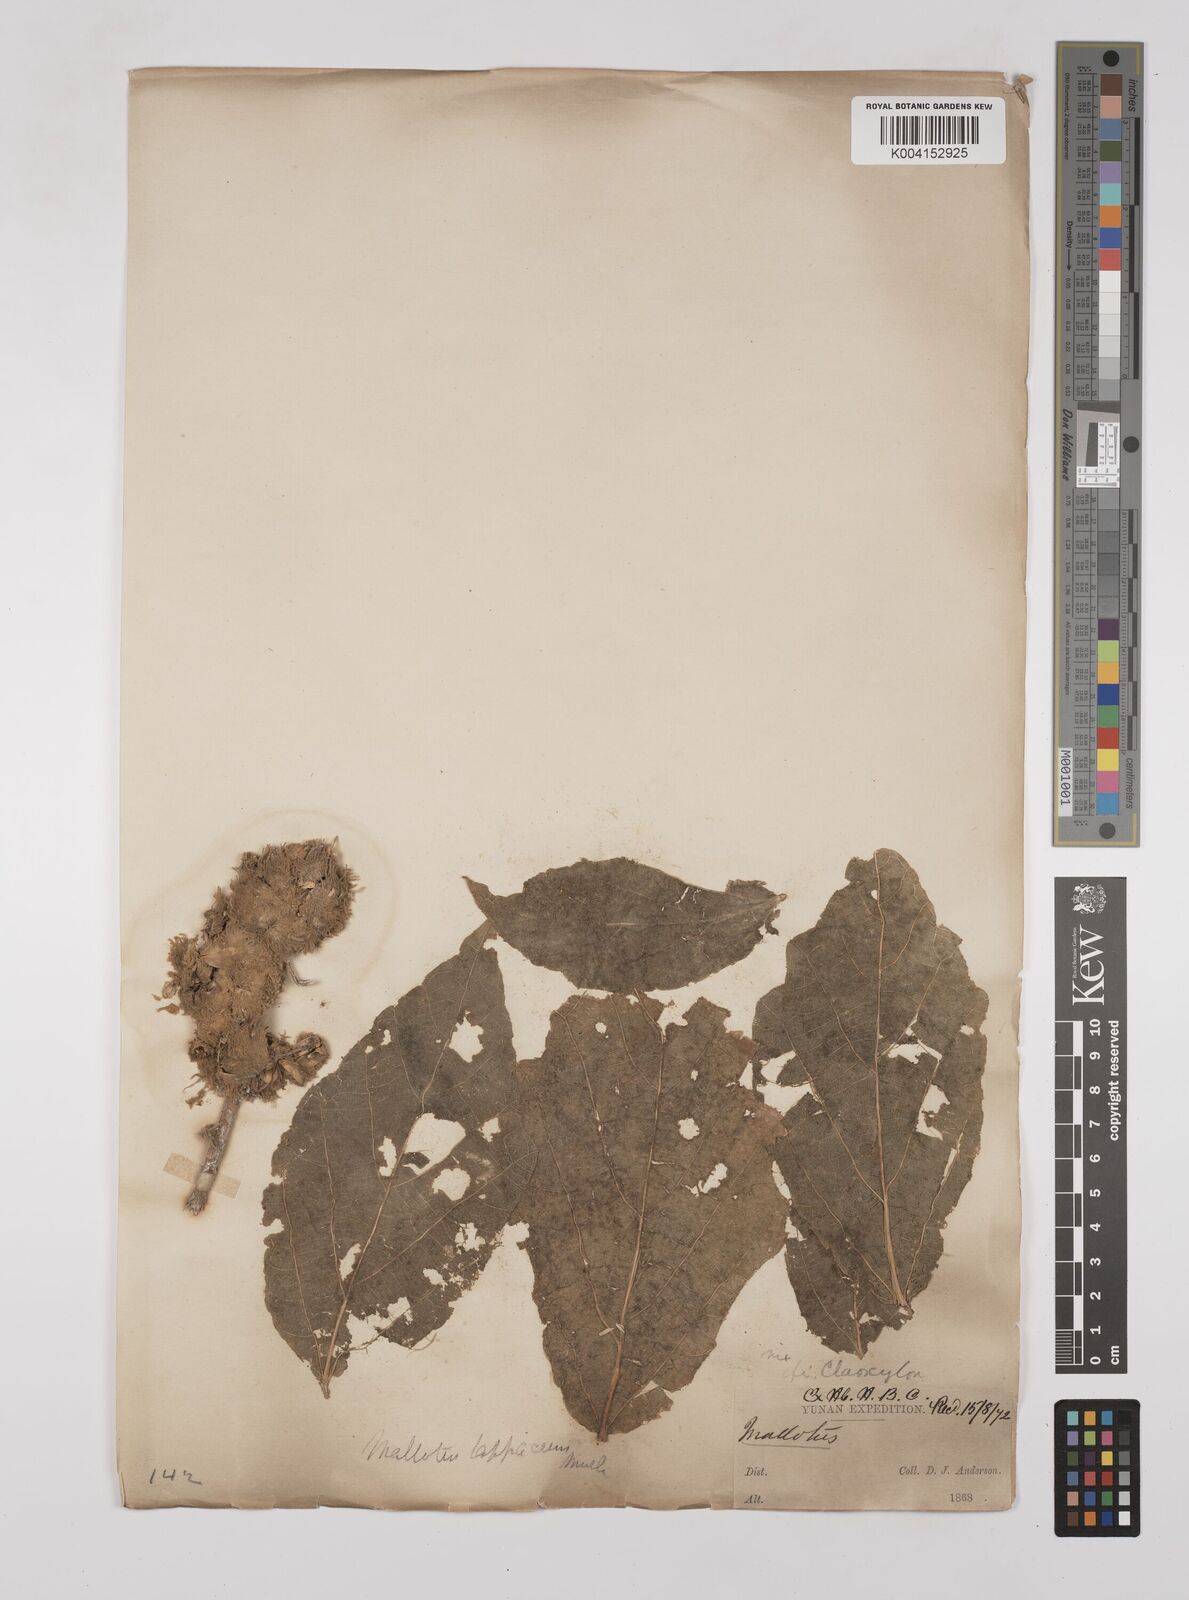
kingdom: Plantae
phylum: Tracheophyta
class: Magnoliopsida
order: Malpighiales
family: Euphorbiaceae
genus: Mallotus
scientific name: Mallotus lappaceus
